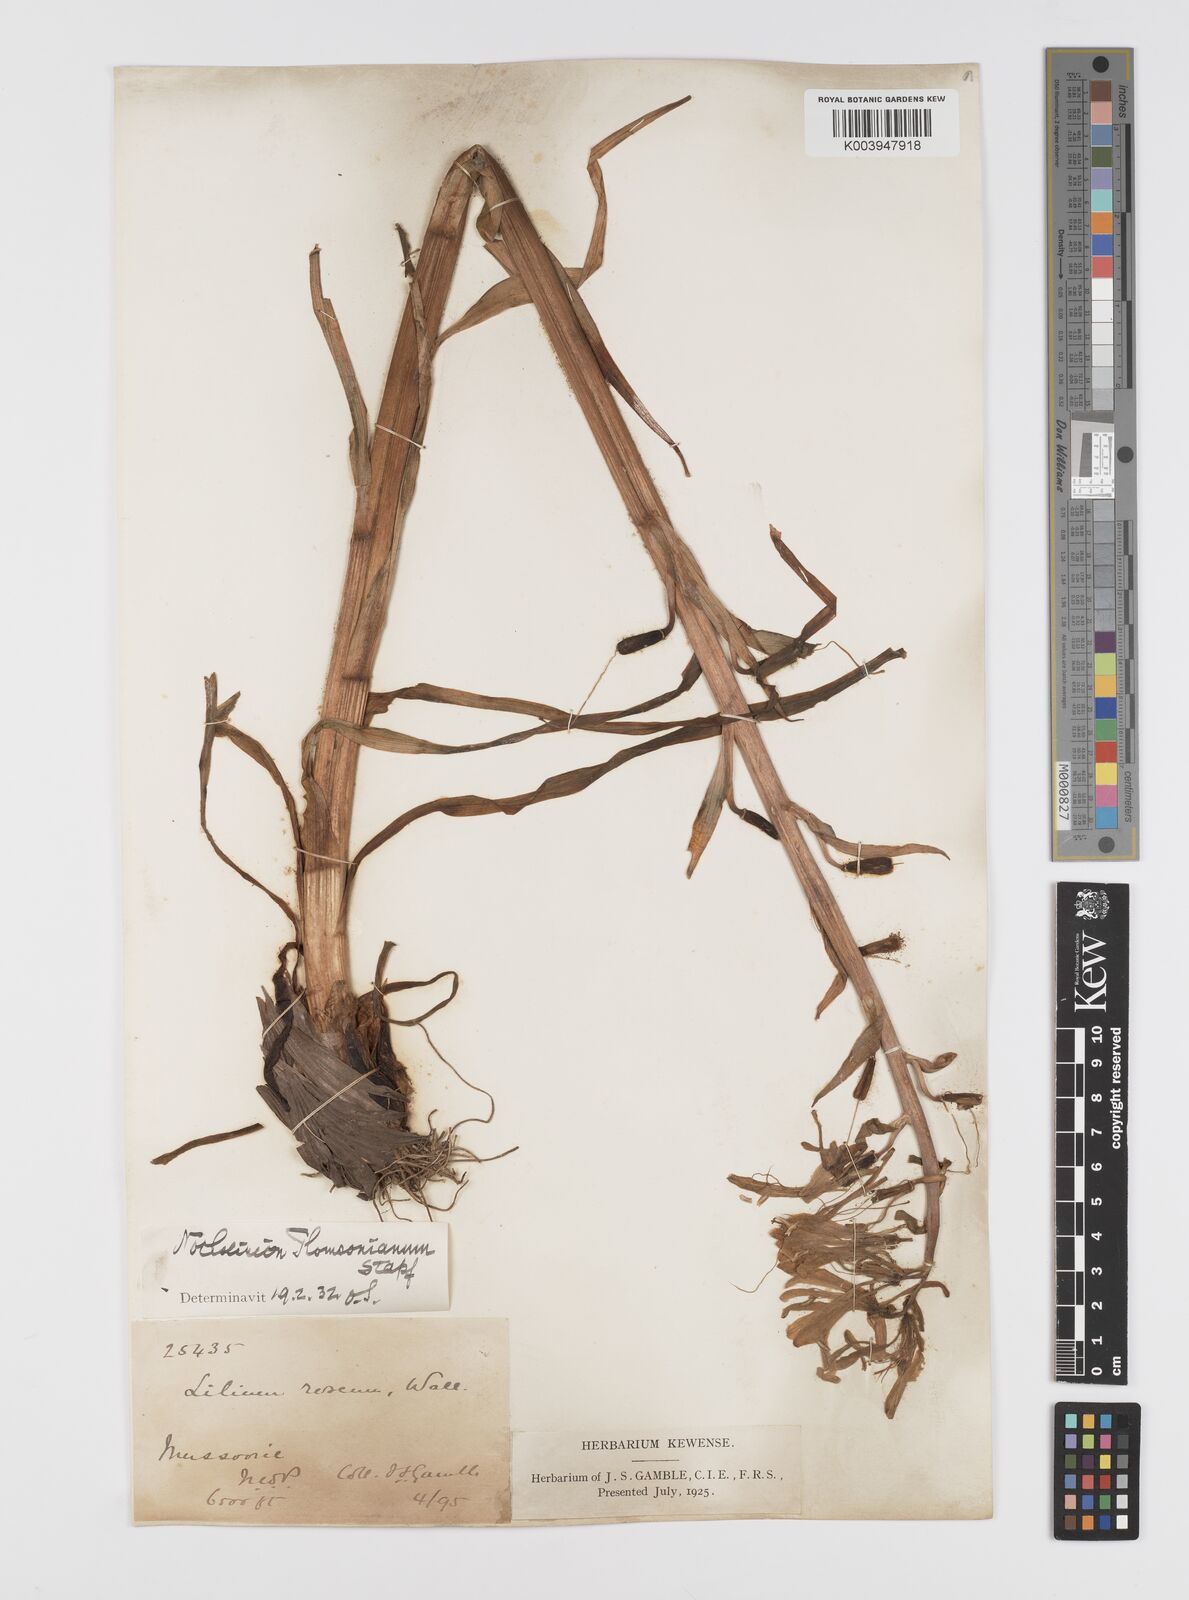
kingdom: Plantae
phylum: Tracheophyta
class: Liliopsida
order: Liliales
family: Liliaceae
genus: Notholirion
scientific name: Notholirion thomsonianum
